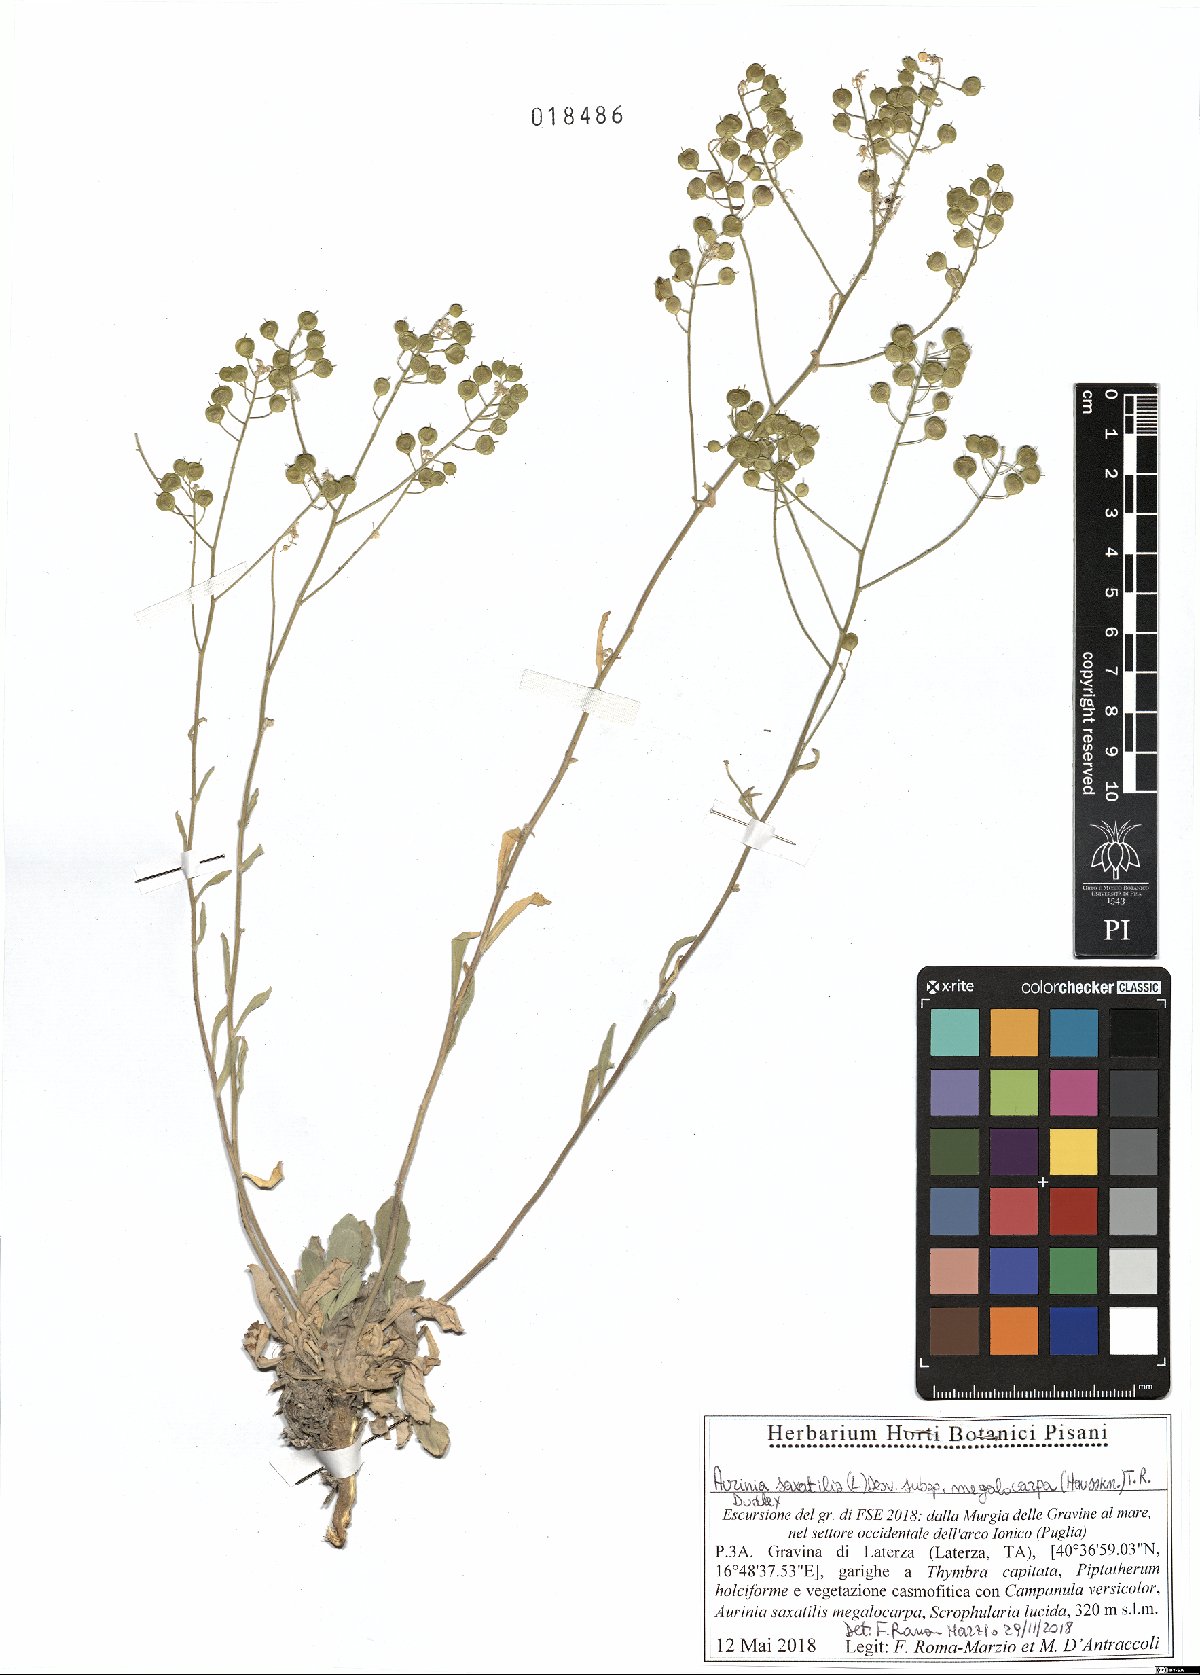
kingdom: Plantae
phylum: Tracheophyta
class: Magnoliopsida
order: Brassicales
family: Brassicaceae
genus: Aurinia
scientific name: Aurinia saxatilis
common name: Golden-tuft alyssum
